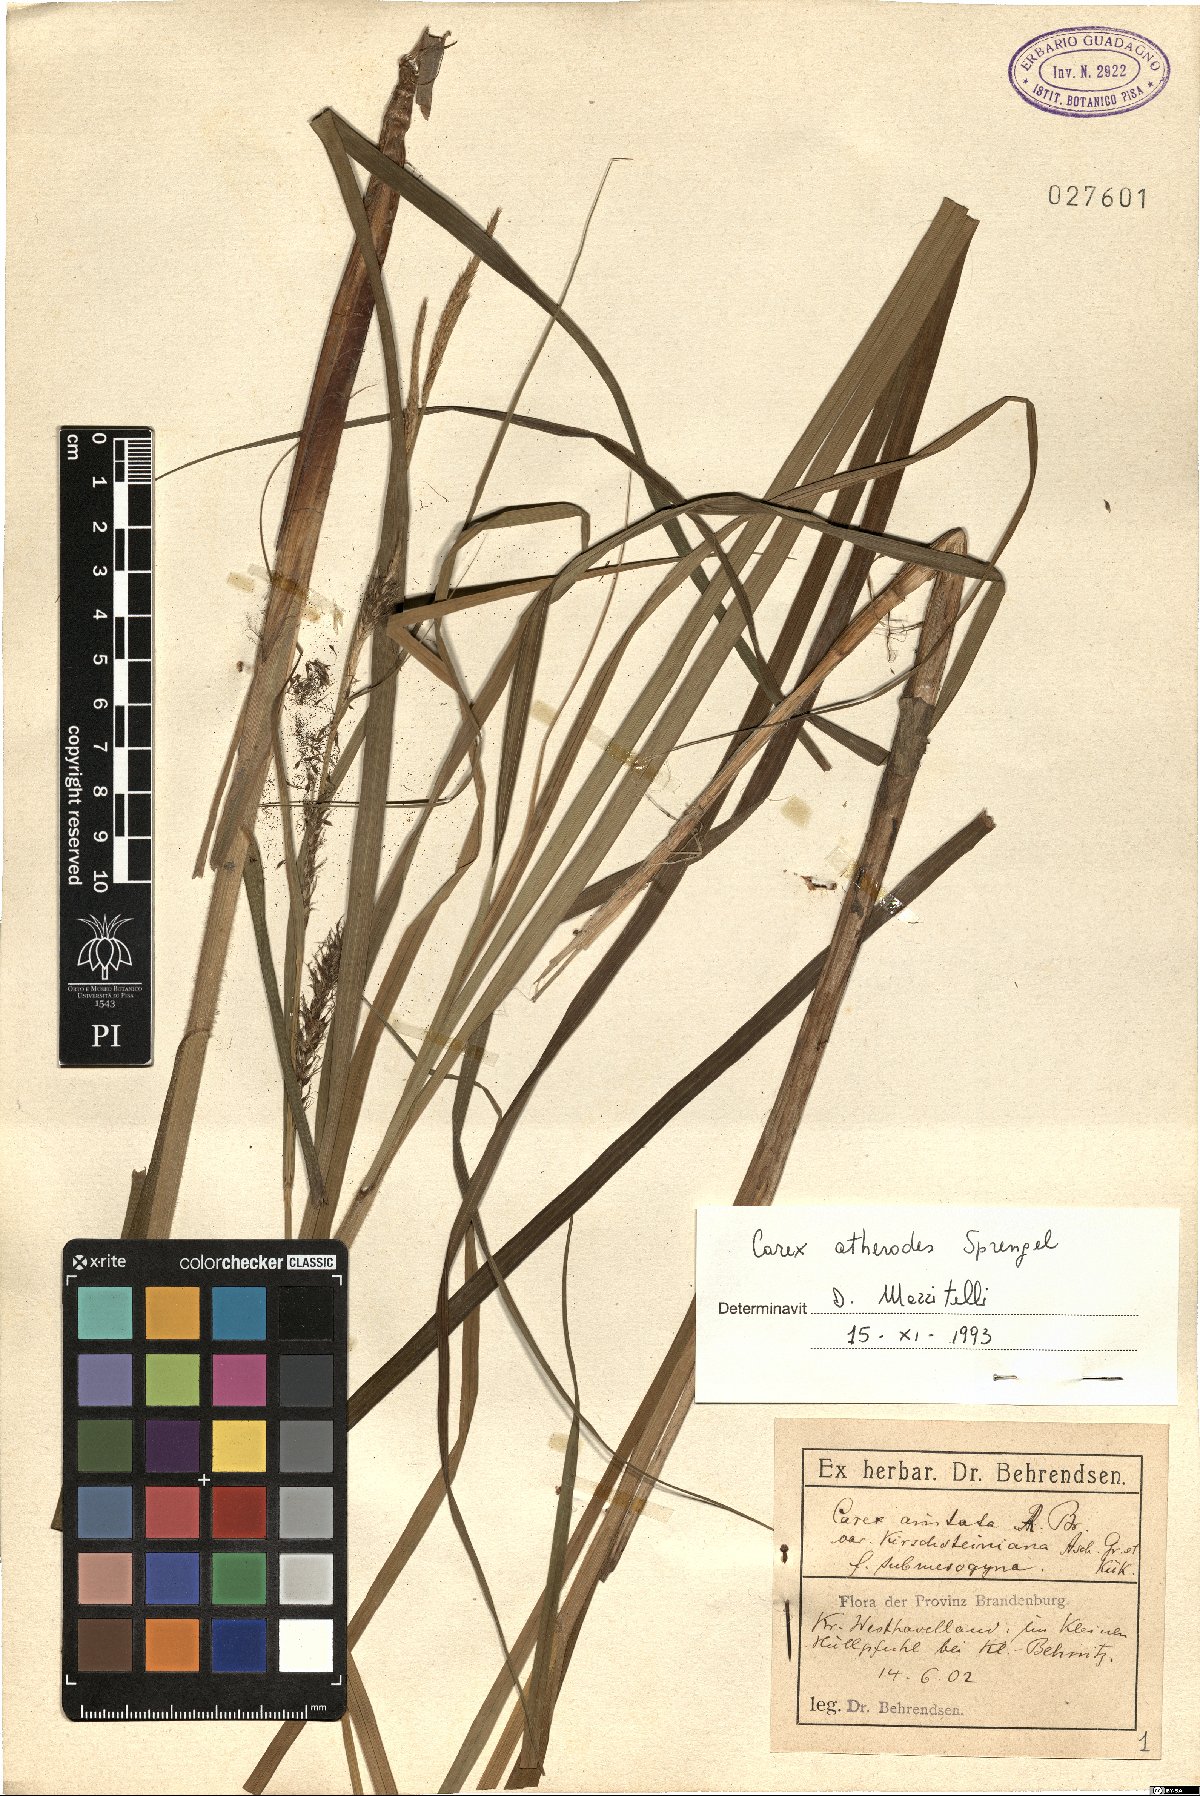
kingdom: Plantae
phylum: Tracheophyta
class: Liliopsida
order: Poales
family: Cyperaceae
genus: Carex
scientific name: Carex atherodes
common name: Wheat sedge
